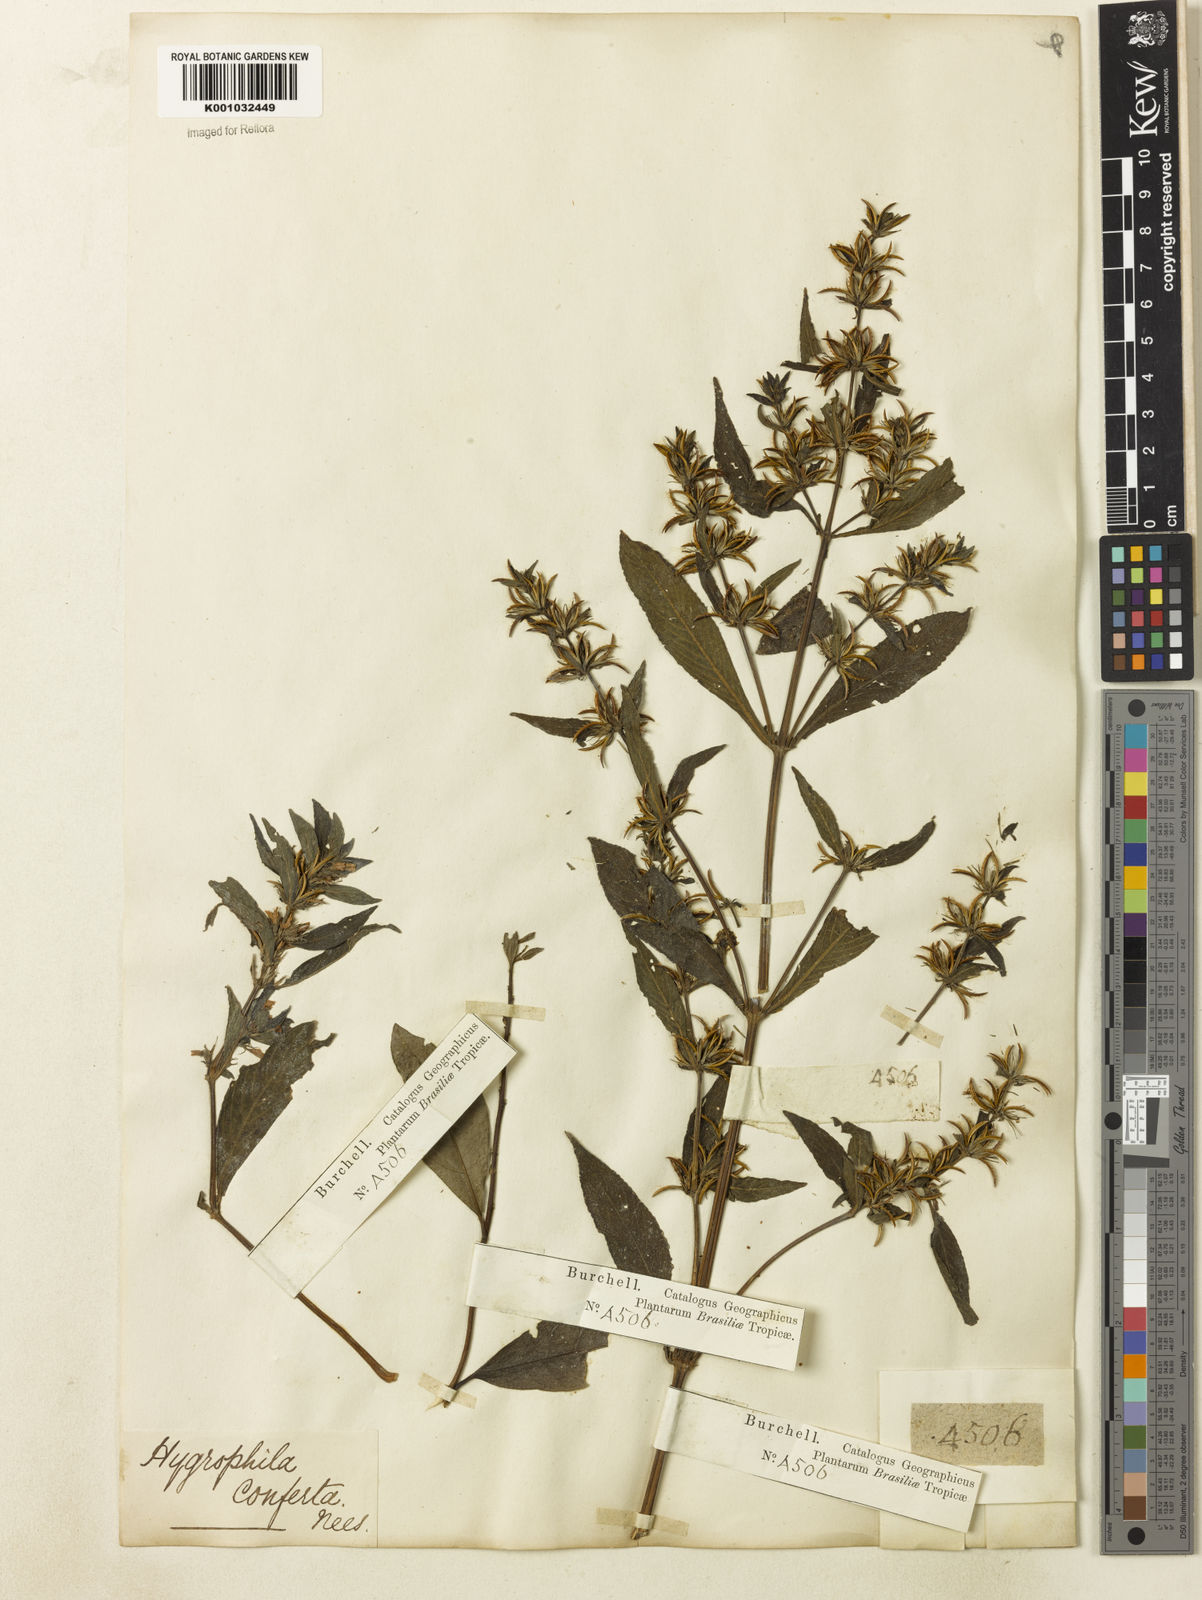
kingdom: Plantae
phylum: Tracheophyta
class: Magnoliopsida
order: Lamiales
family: Acanthaceae
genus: Hygrophila
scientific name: Hygrophila costata
